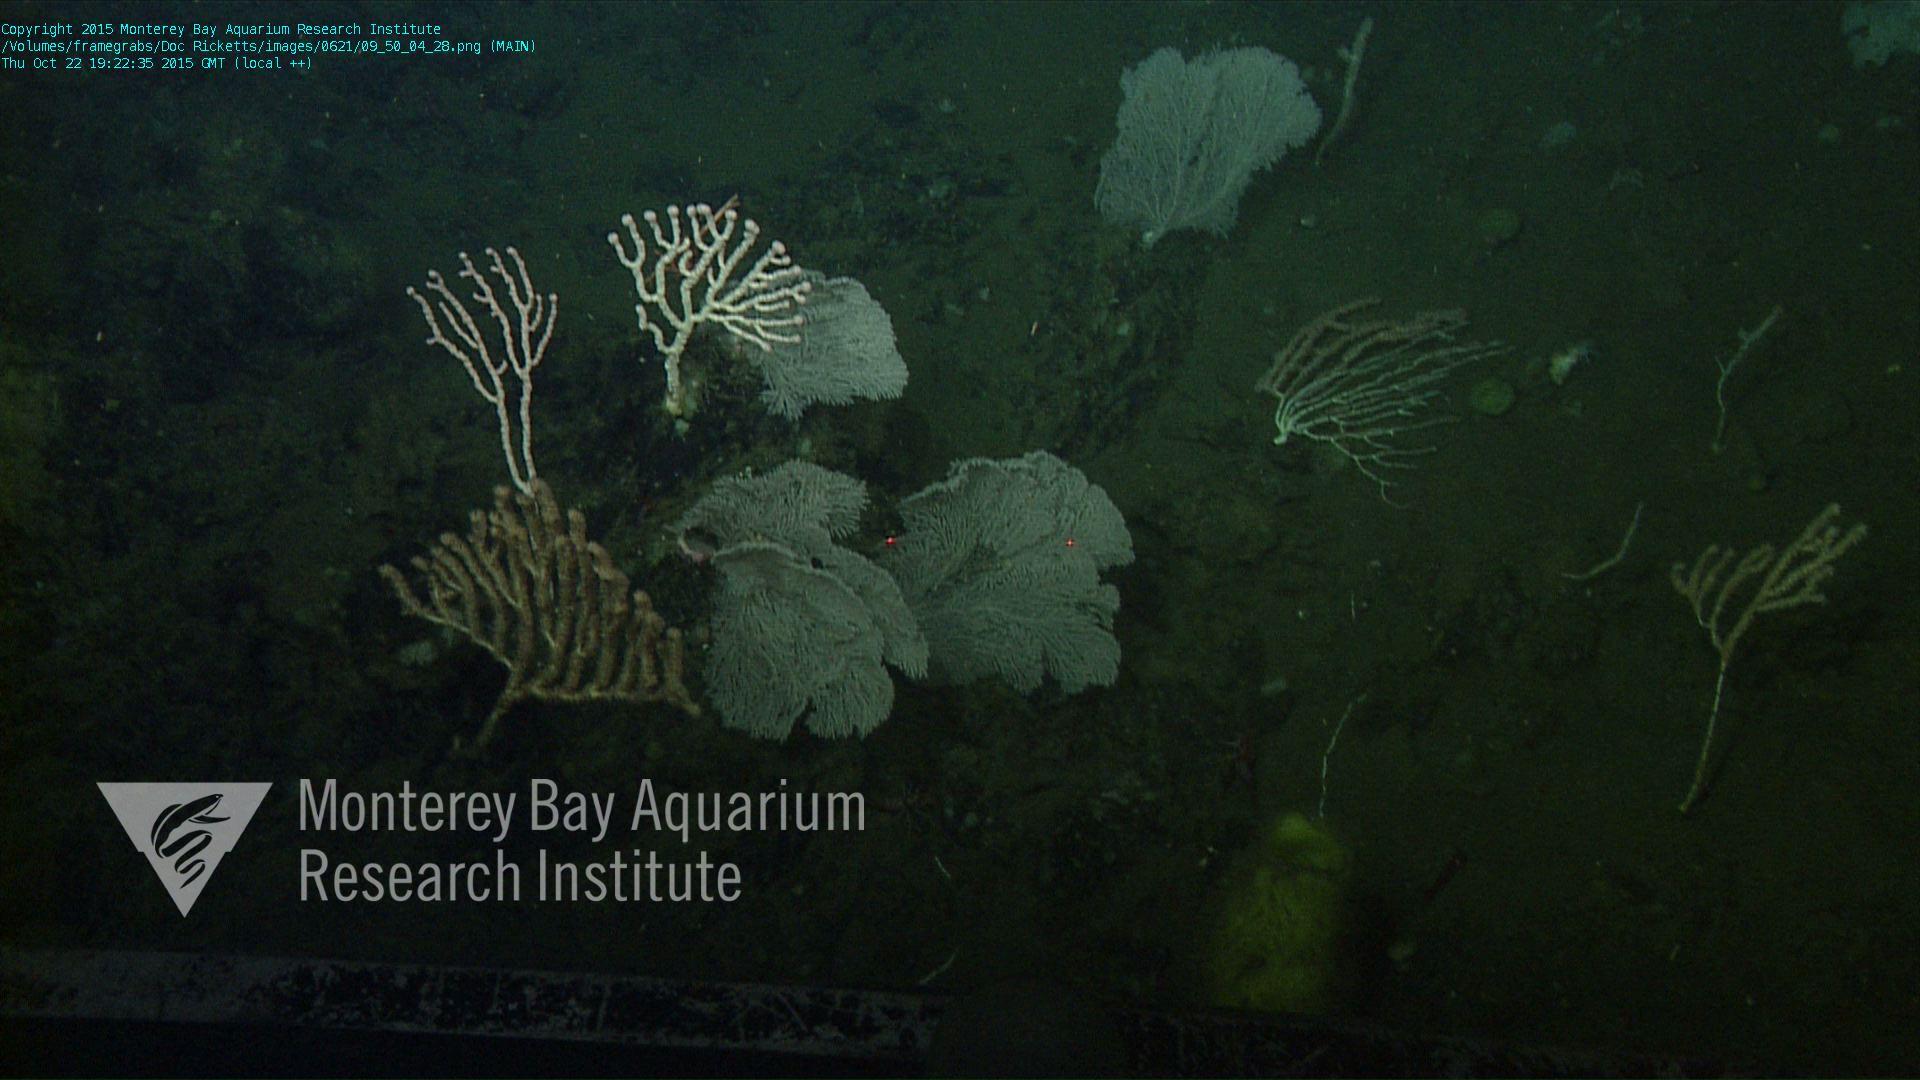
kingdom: Animalia
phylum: Cnidaria
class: Anthozoa
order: Scleralcyonacea
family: Primnoidae
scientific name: Primnoidae
